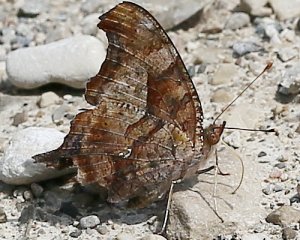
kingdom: Animalia
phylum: Arthropoda
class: Insecta
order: Lepidoptera
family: Nymphalidae
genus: Polygonia
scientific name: Polygonia interrogationis
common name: Question Mark
